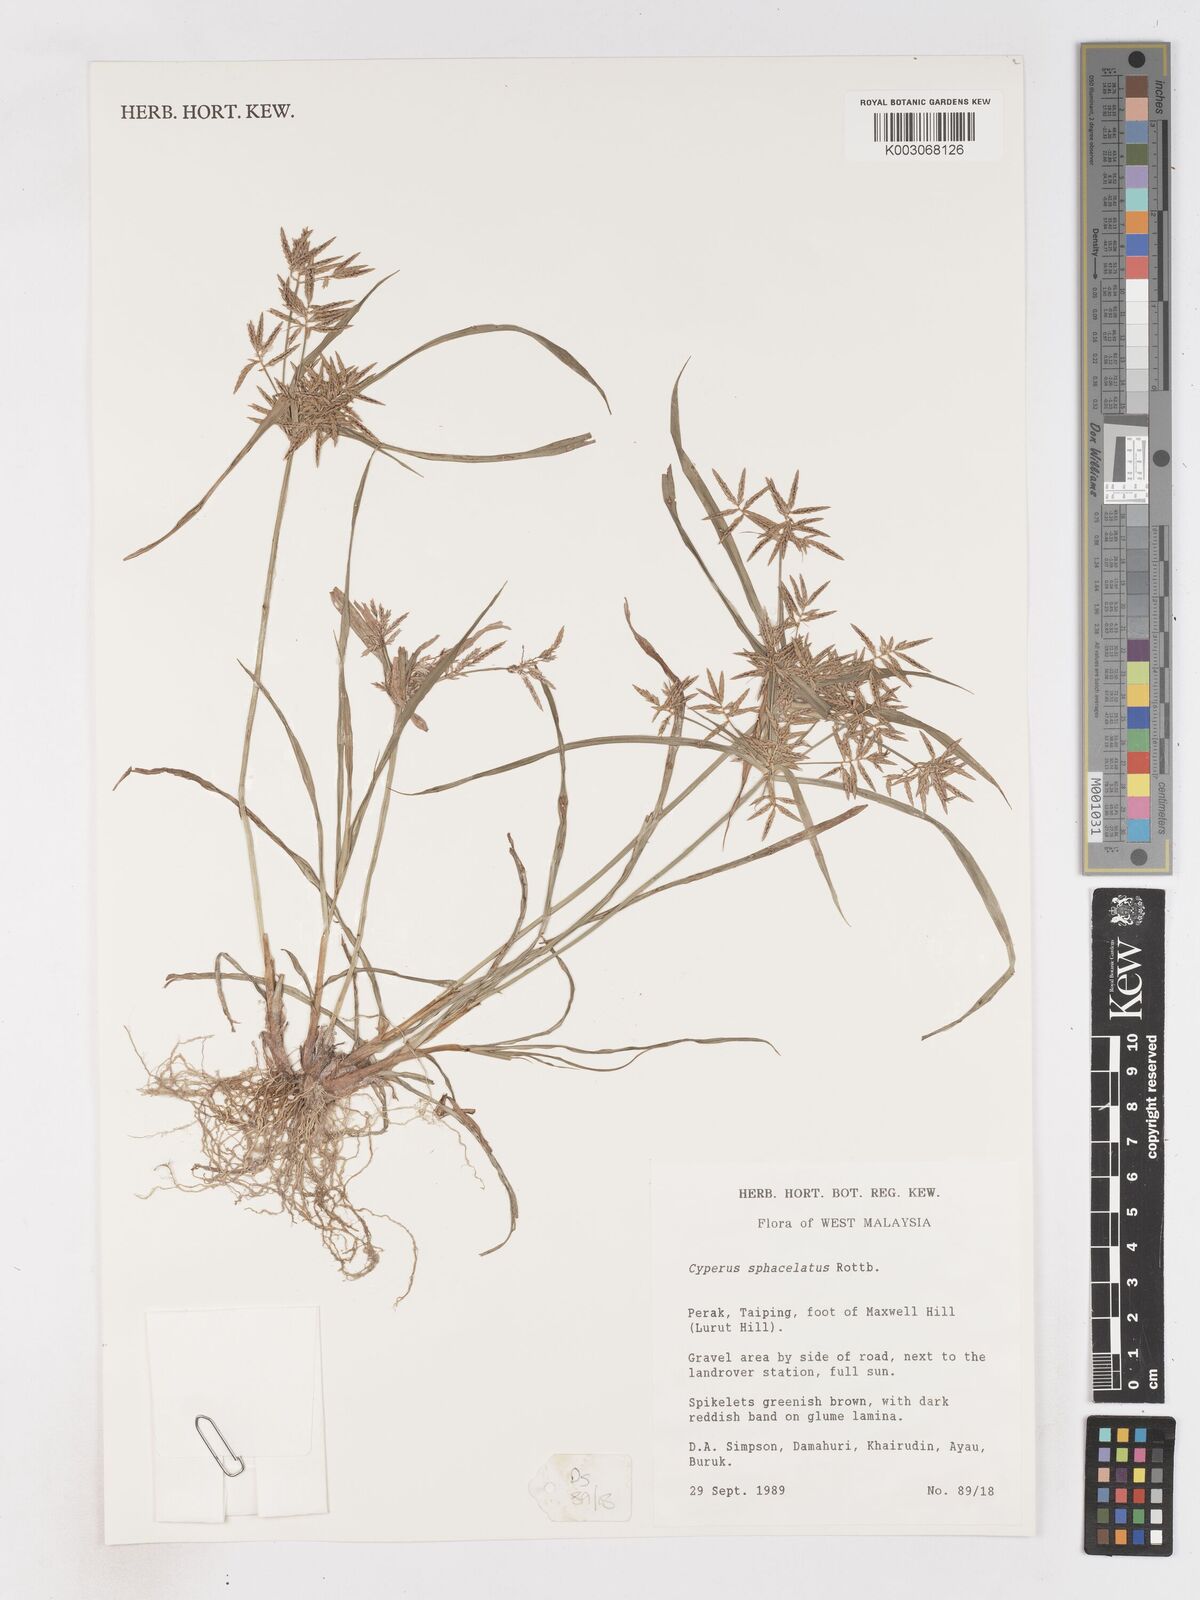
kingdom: Plantae
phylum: Tracheophyta
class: Liliopsida
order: Poales
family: Cyperaceae
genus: Cyperus
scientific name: Cyperus sphacelatus
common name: Roadside flatsedge
